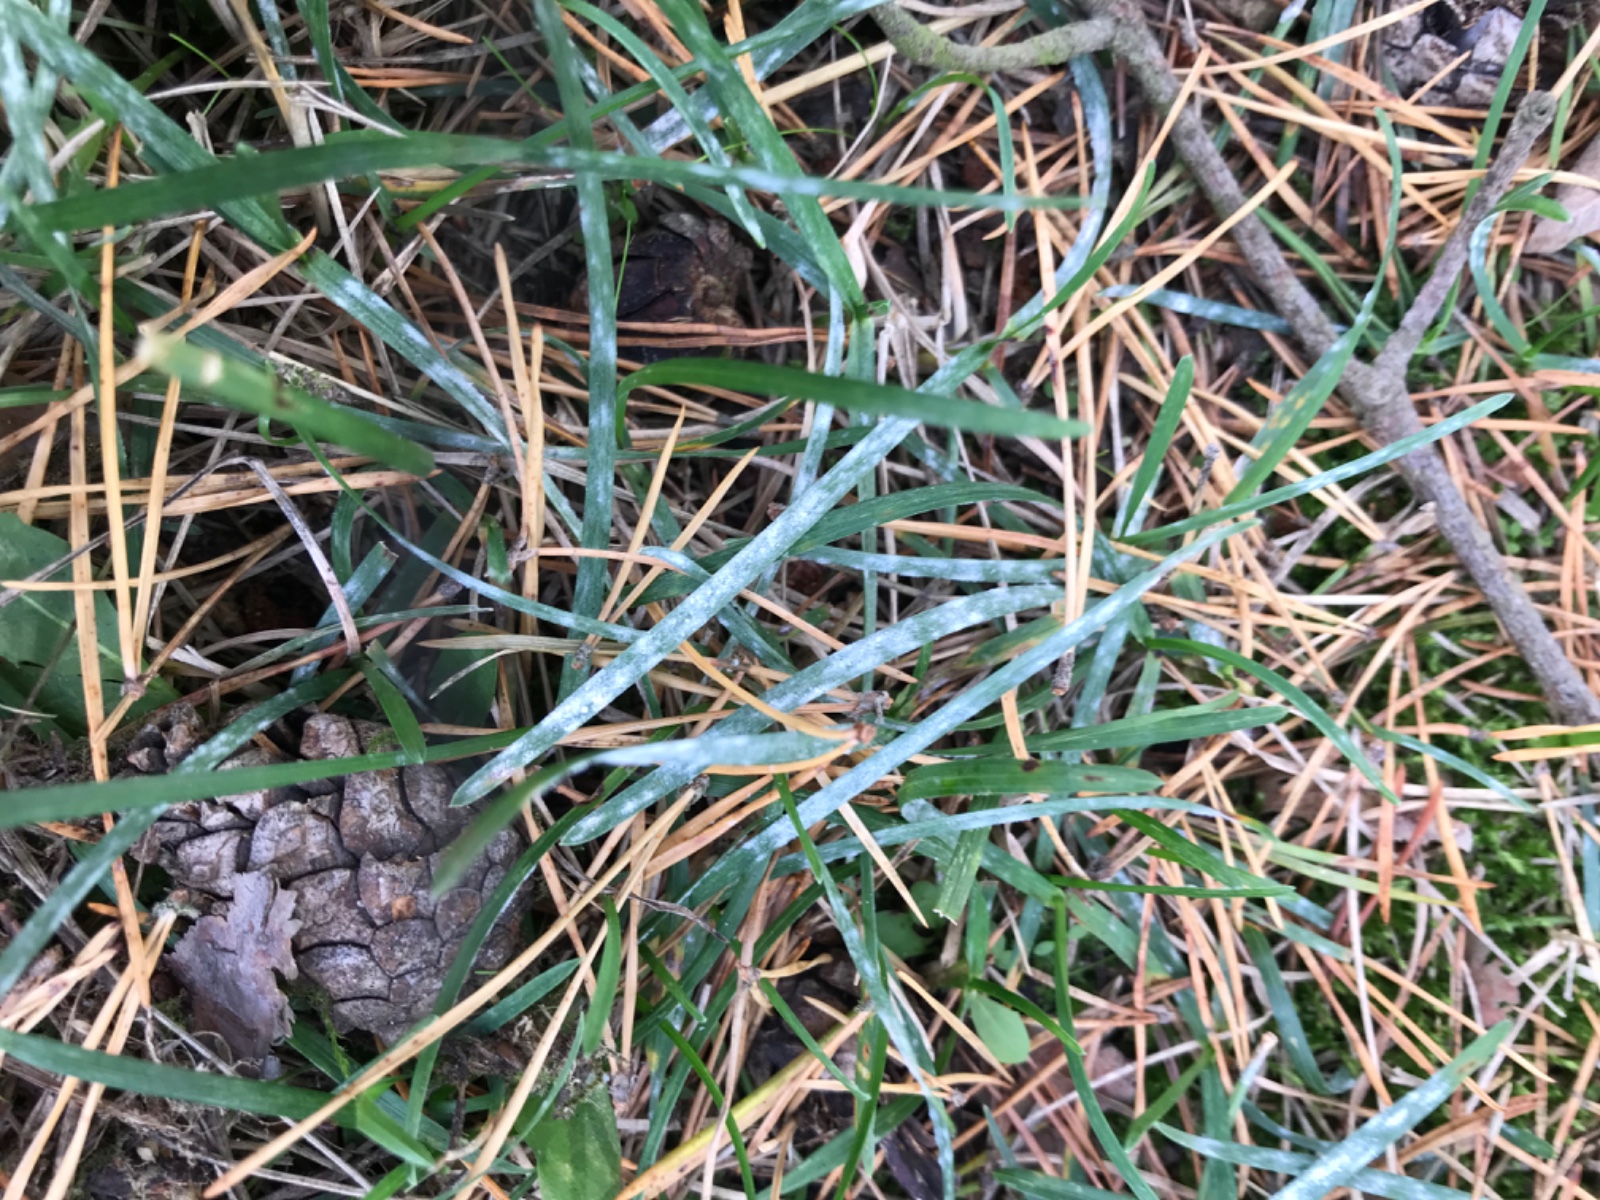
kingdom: Fungi
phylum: Ascomycota
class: Leotiomycetes
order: Helotiales
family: Erysiphaceae
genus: Blumeria
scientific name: Blumeria graminis
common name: græs-meldug
